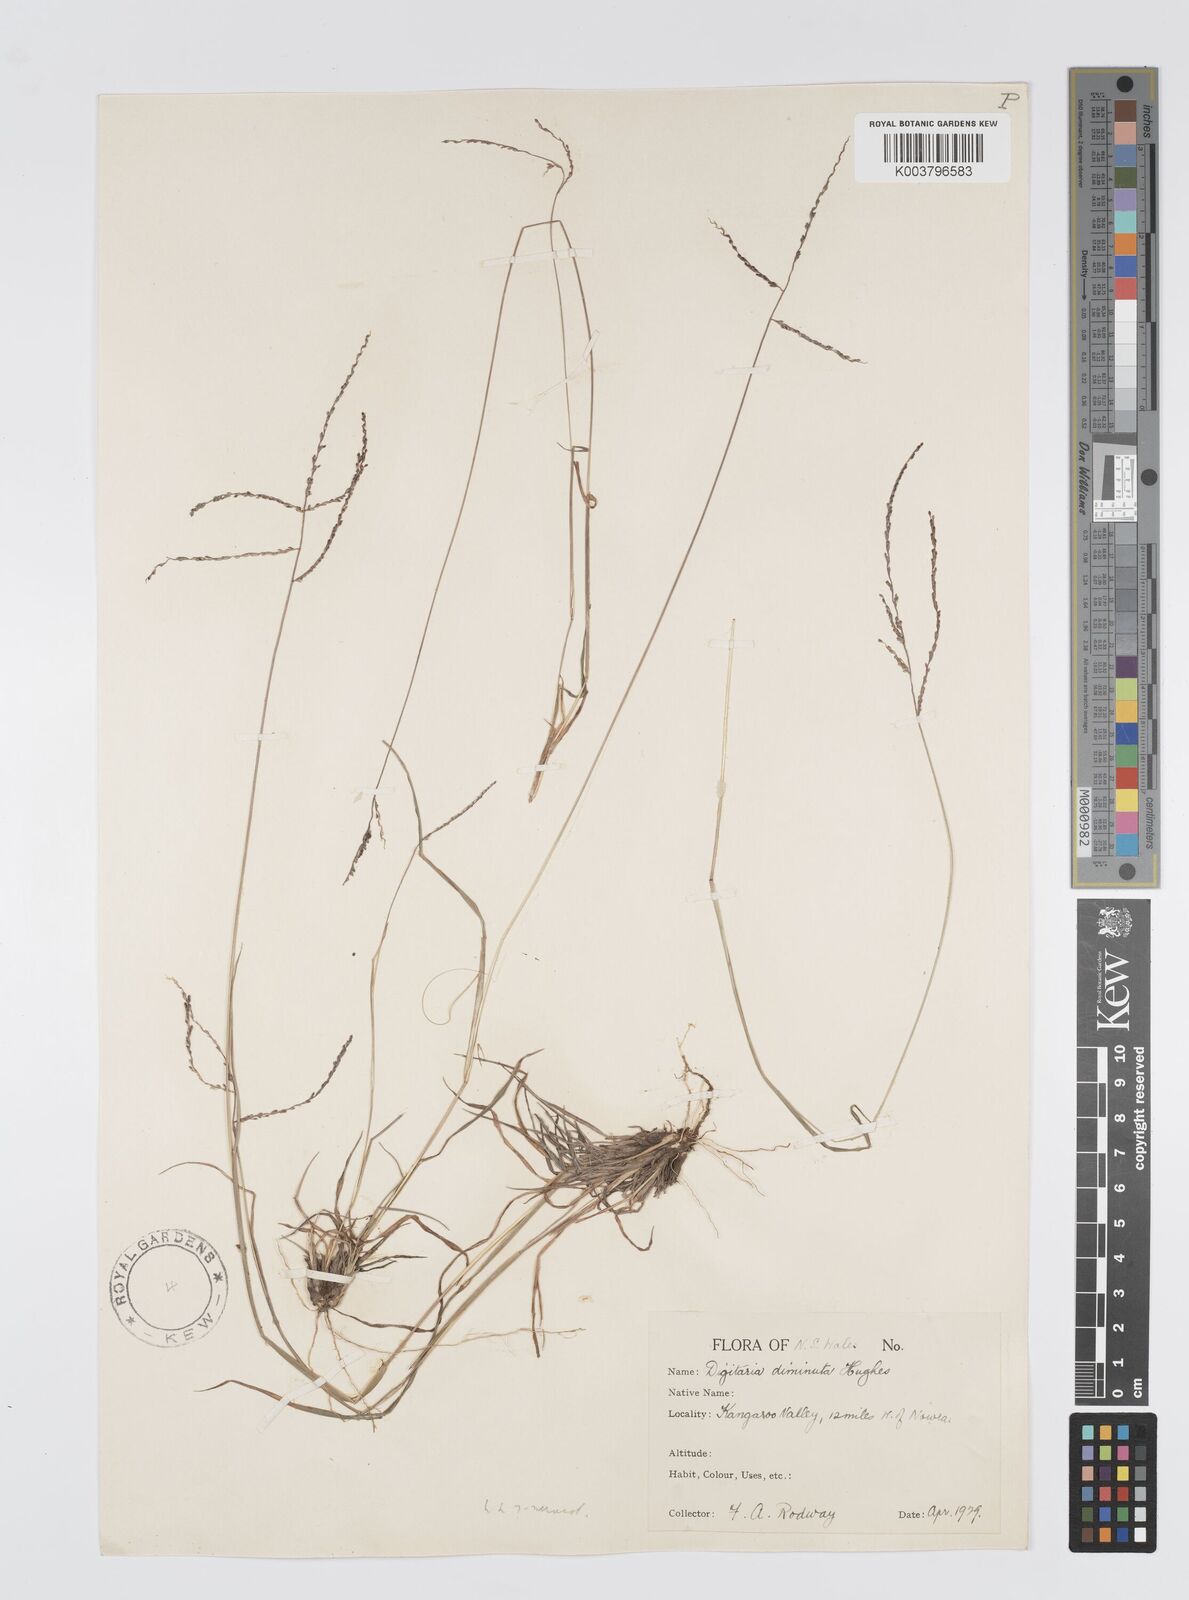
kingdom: Plantae
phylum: Tracheophyta
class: Liliopsida
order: Poales
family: Poaceae
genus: Digitaria
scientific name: Digitaria breviglumis
